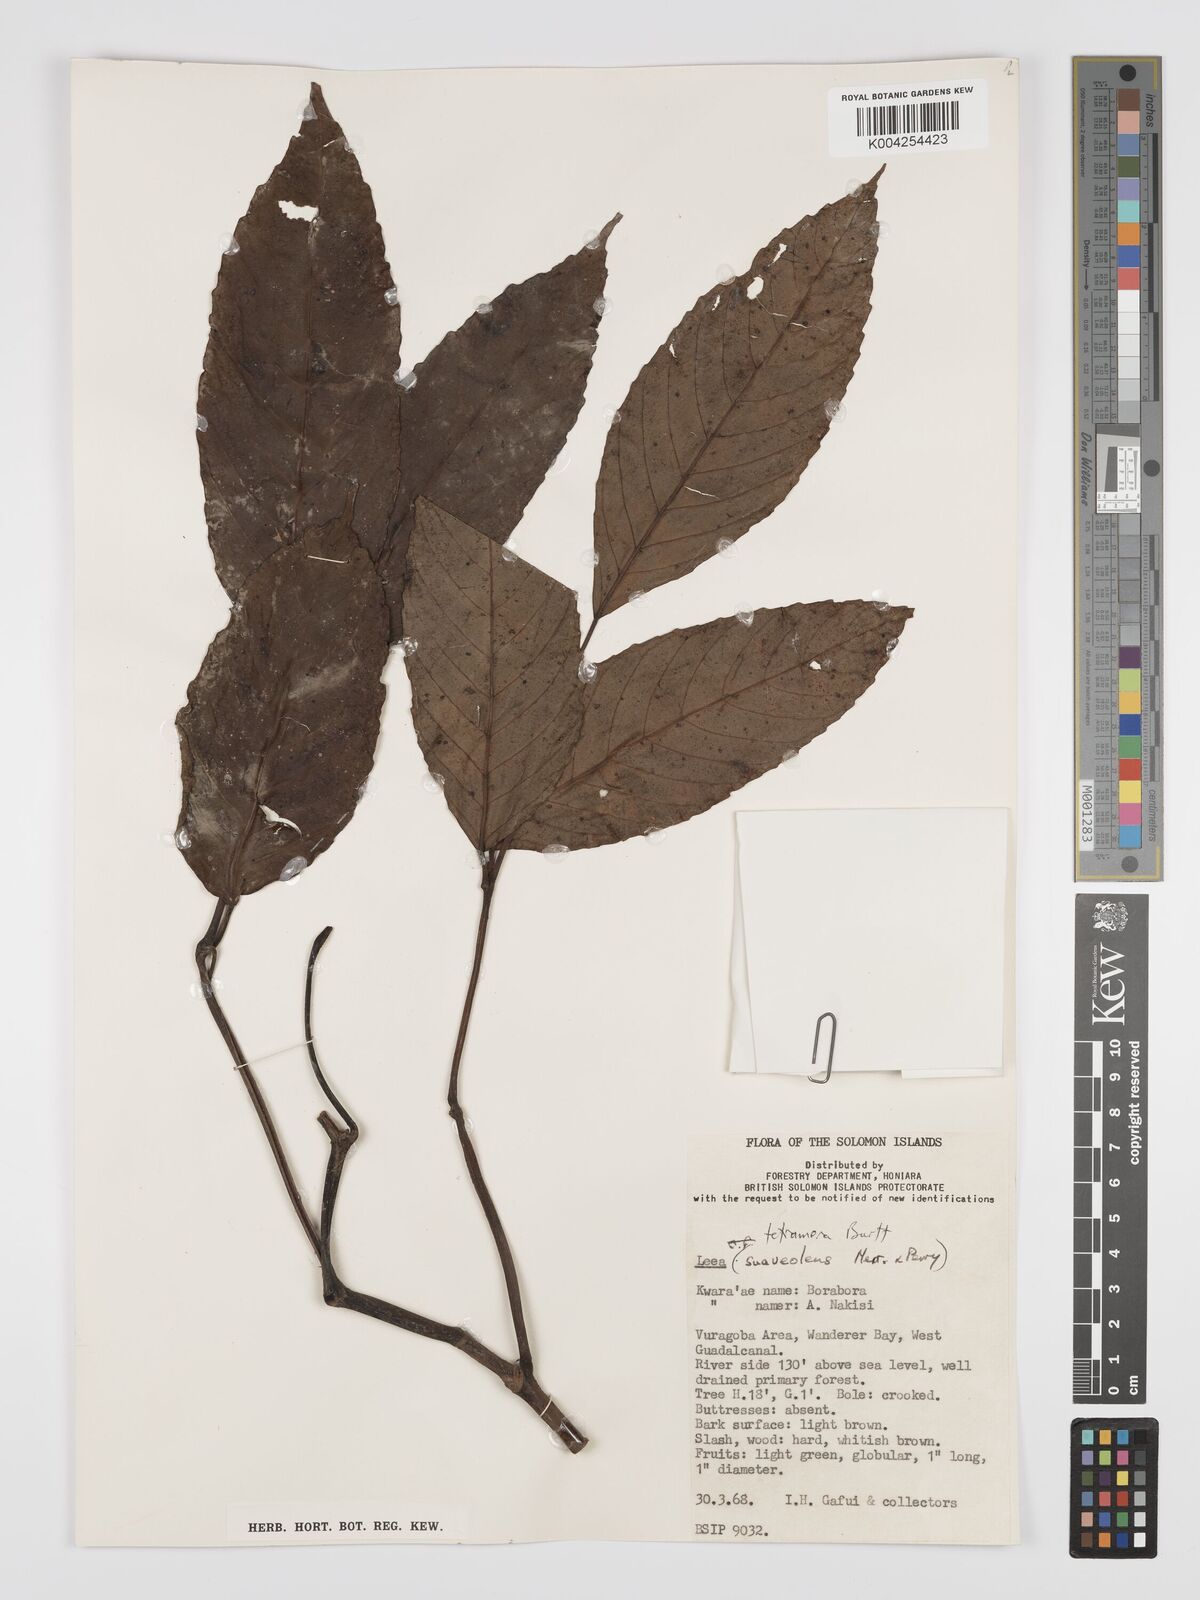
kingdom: Plantae
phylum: Tracheophyta
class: Magnoliopsida
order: Vitales
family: Vitaceae
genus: Leea
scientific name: Leea tetramera
